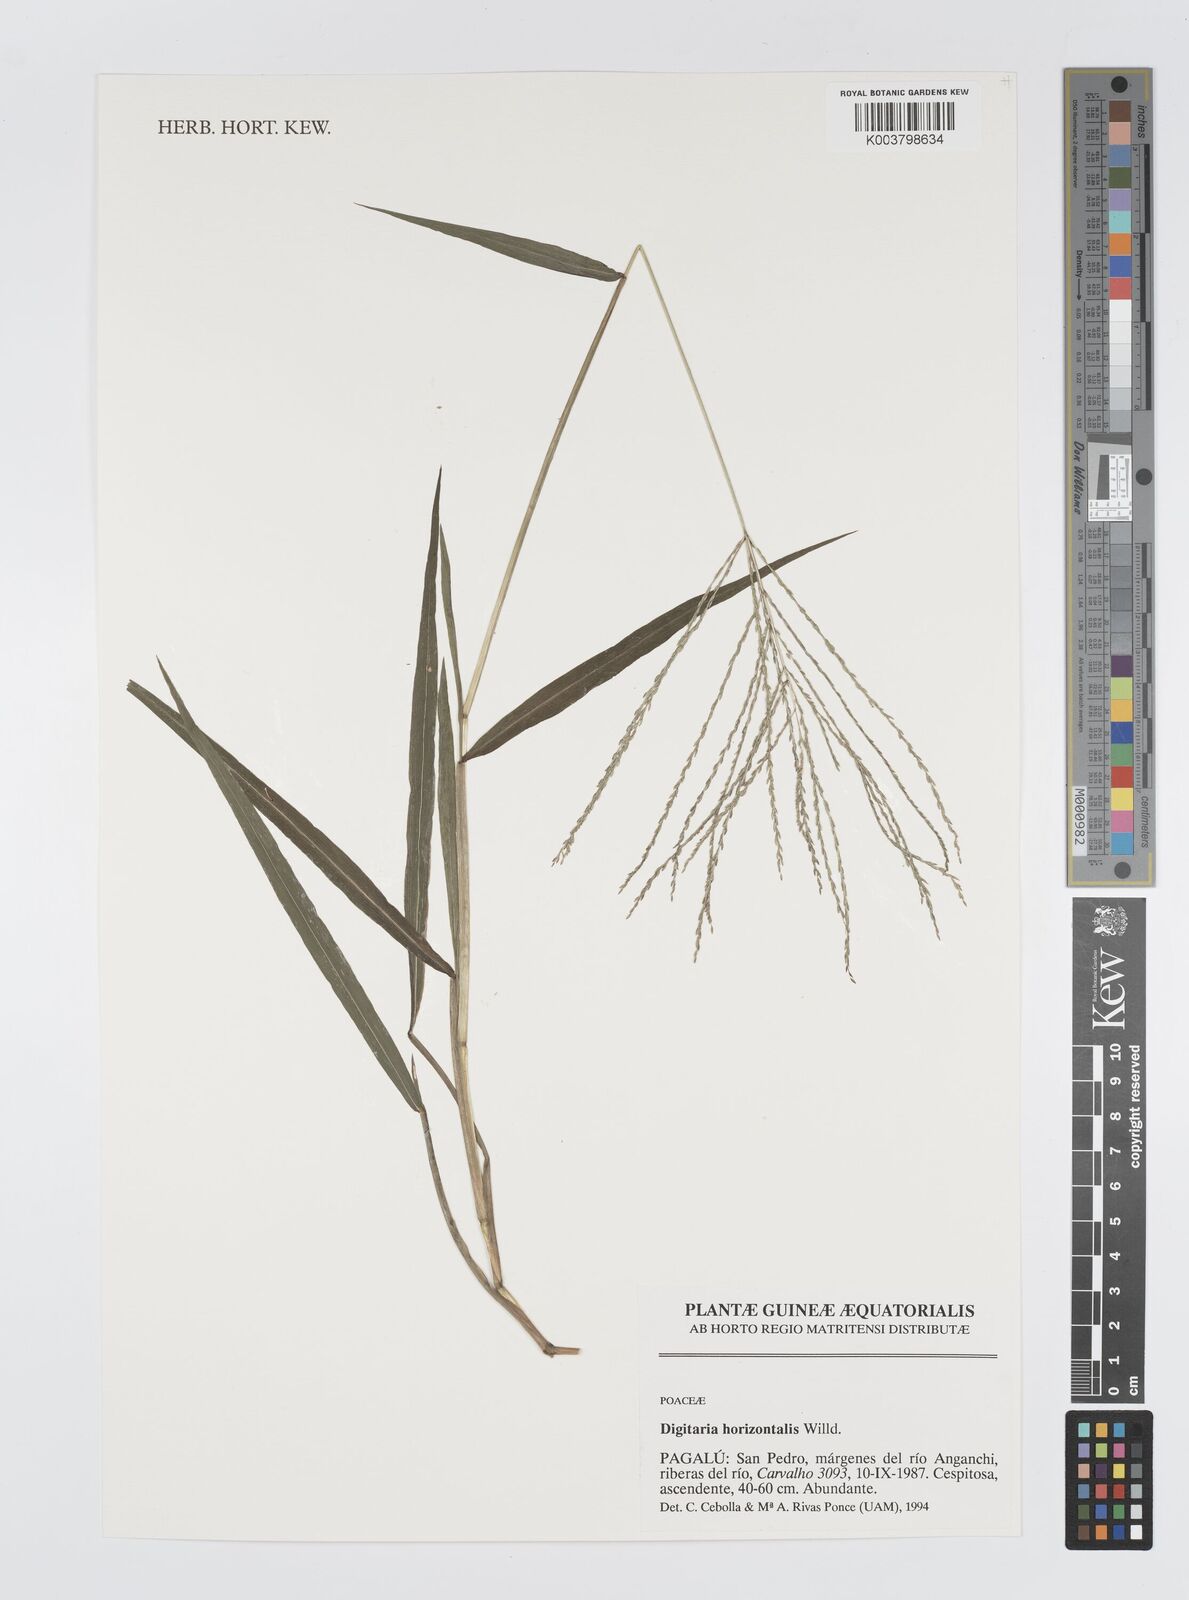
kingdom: Plantae
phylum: Tracheophyta
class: Liliopsida
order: Poales
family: Poaceae
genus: Digitaria
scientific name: Digitaria horizontalis
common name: Jamaican crabgrass
